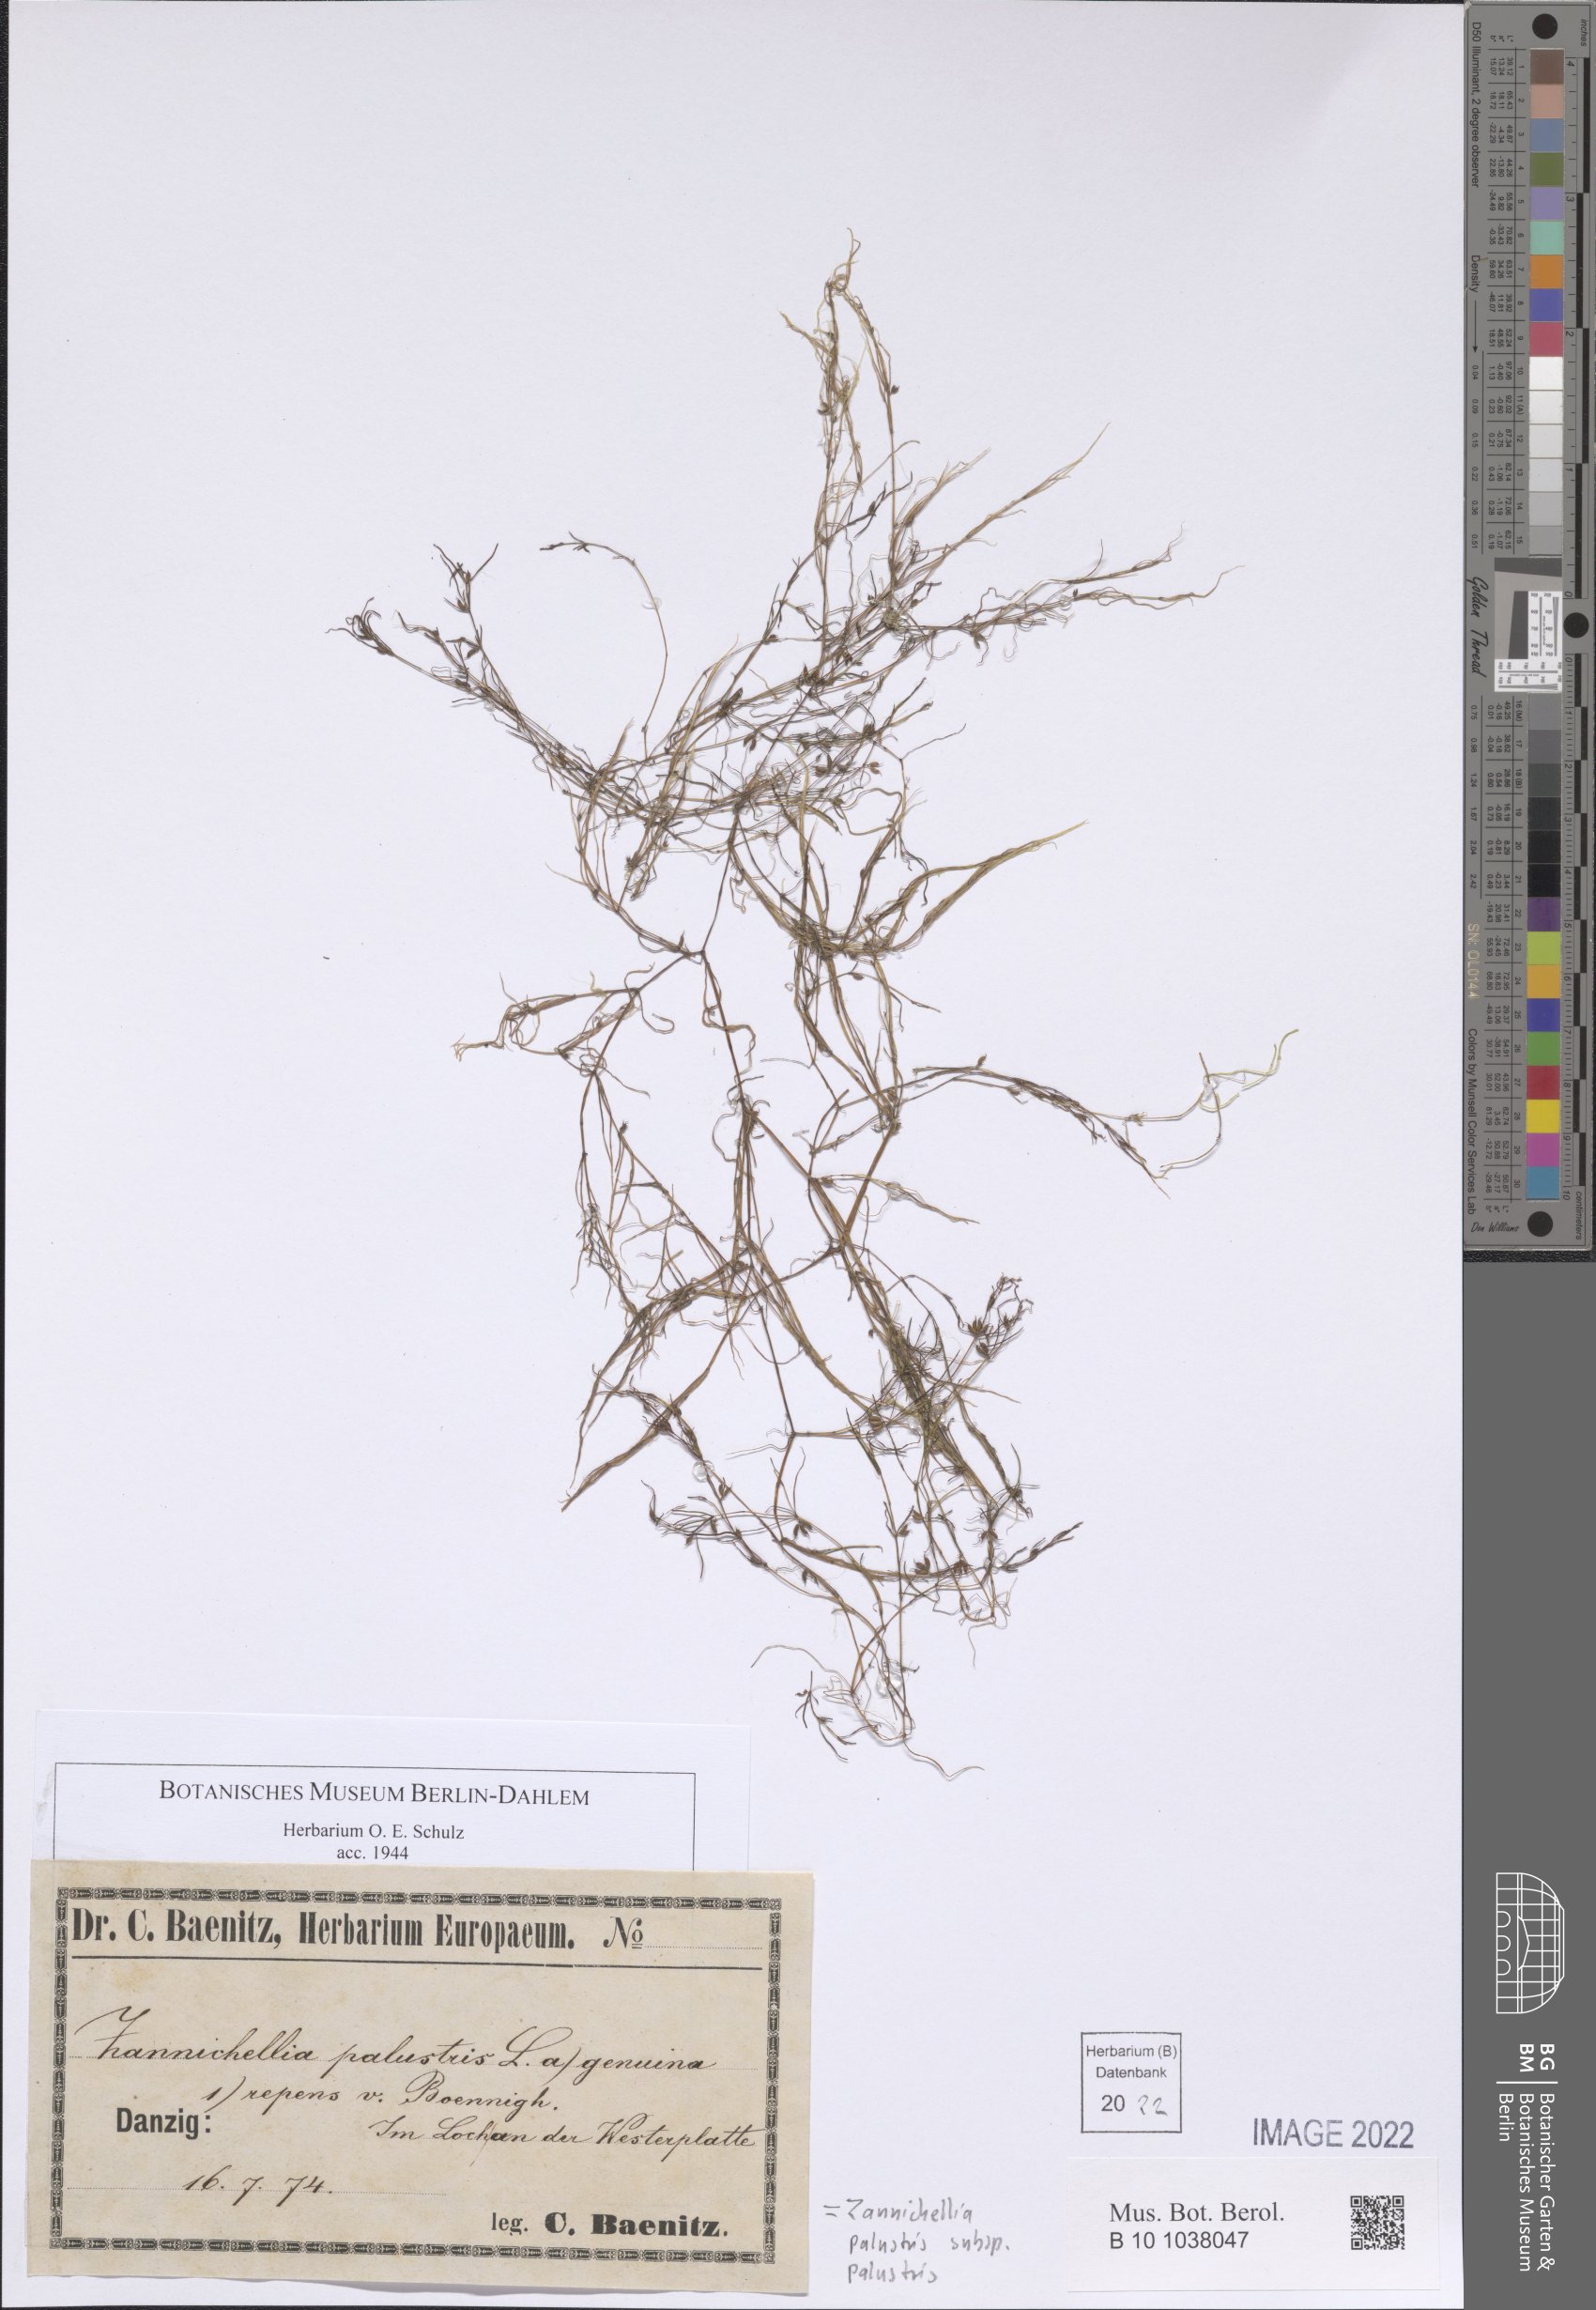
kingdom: Plantae
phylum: Tracheophyta
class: Liliopsida
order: Alismatales
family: Potamogetonaceae
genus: Zannichellia
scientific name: Zannichellia palustris
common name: Horned pondweed
